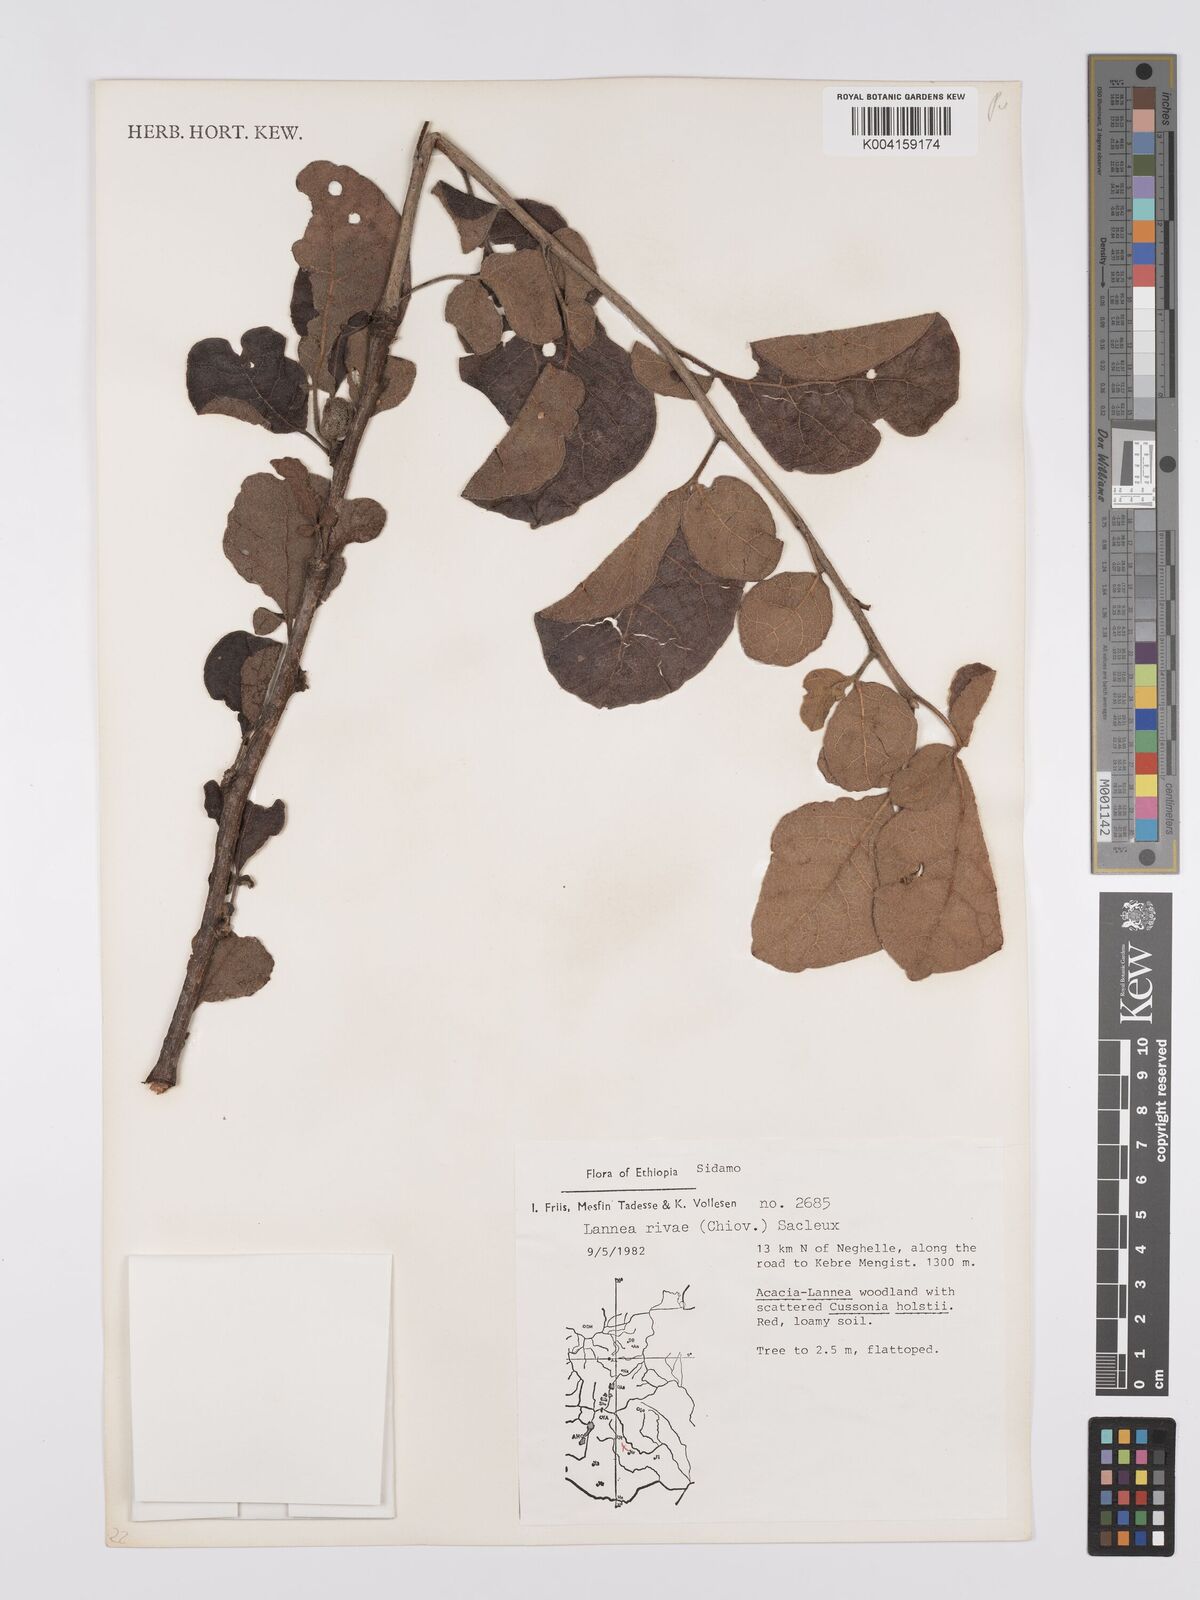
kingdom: Plantae
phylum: Tracheophyta
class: Magnoliopsida
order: Sapindales
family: Anacardiaceae
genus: Lannea
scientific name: Lannea rivae
